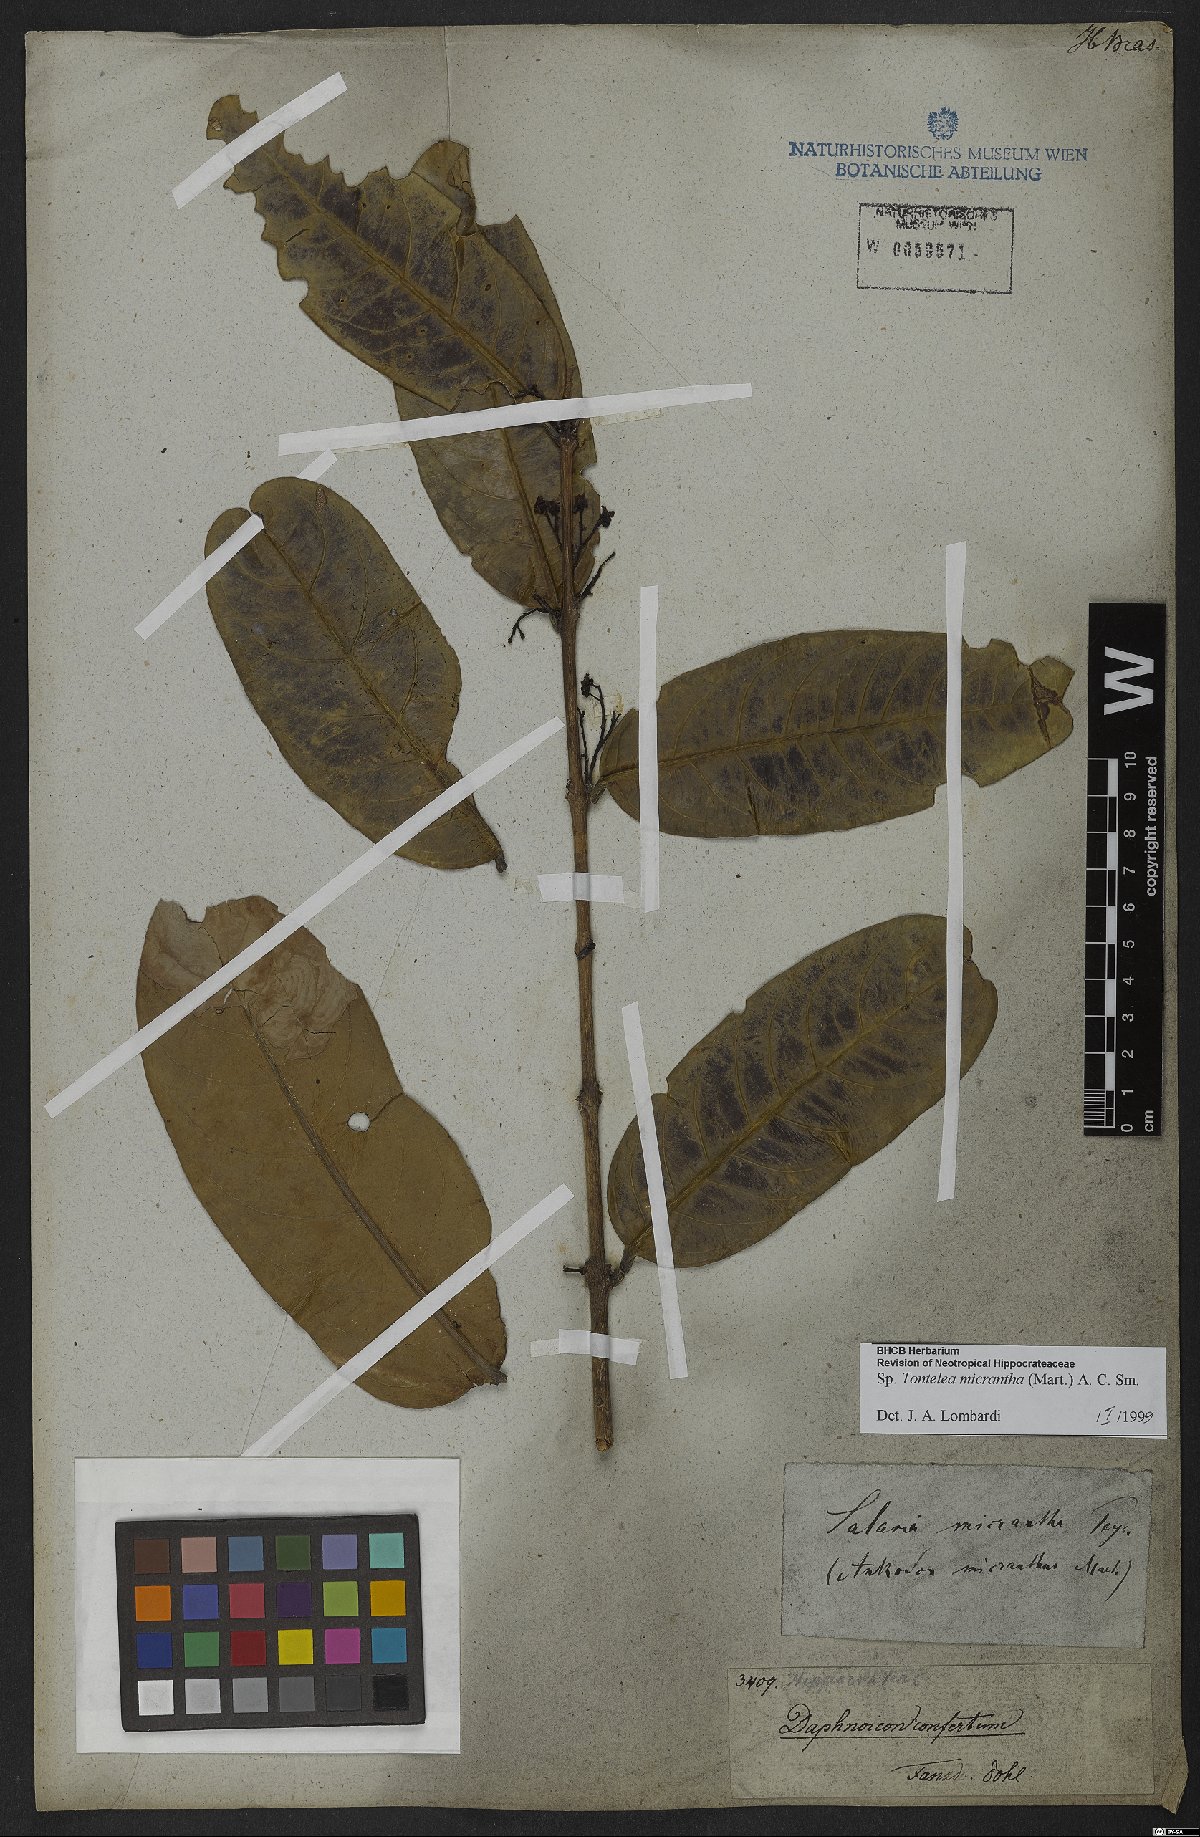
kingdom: Plantae
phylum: Tracheophyta
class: Magnoliopsida
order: Celastrales
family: Celastraceae
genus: Tontelea
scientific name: Tontelea micrantha
